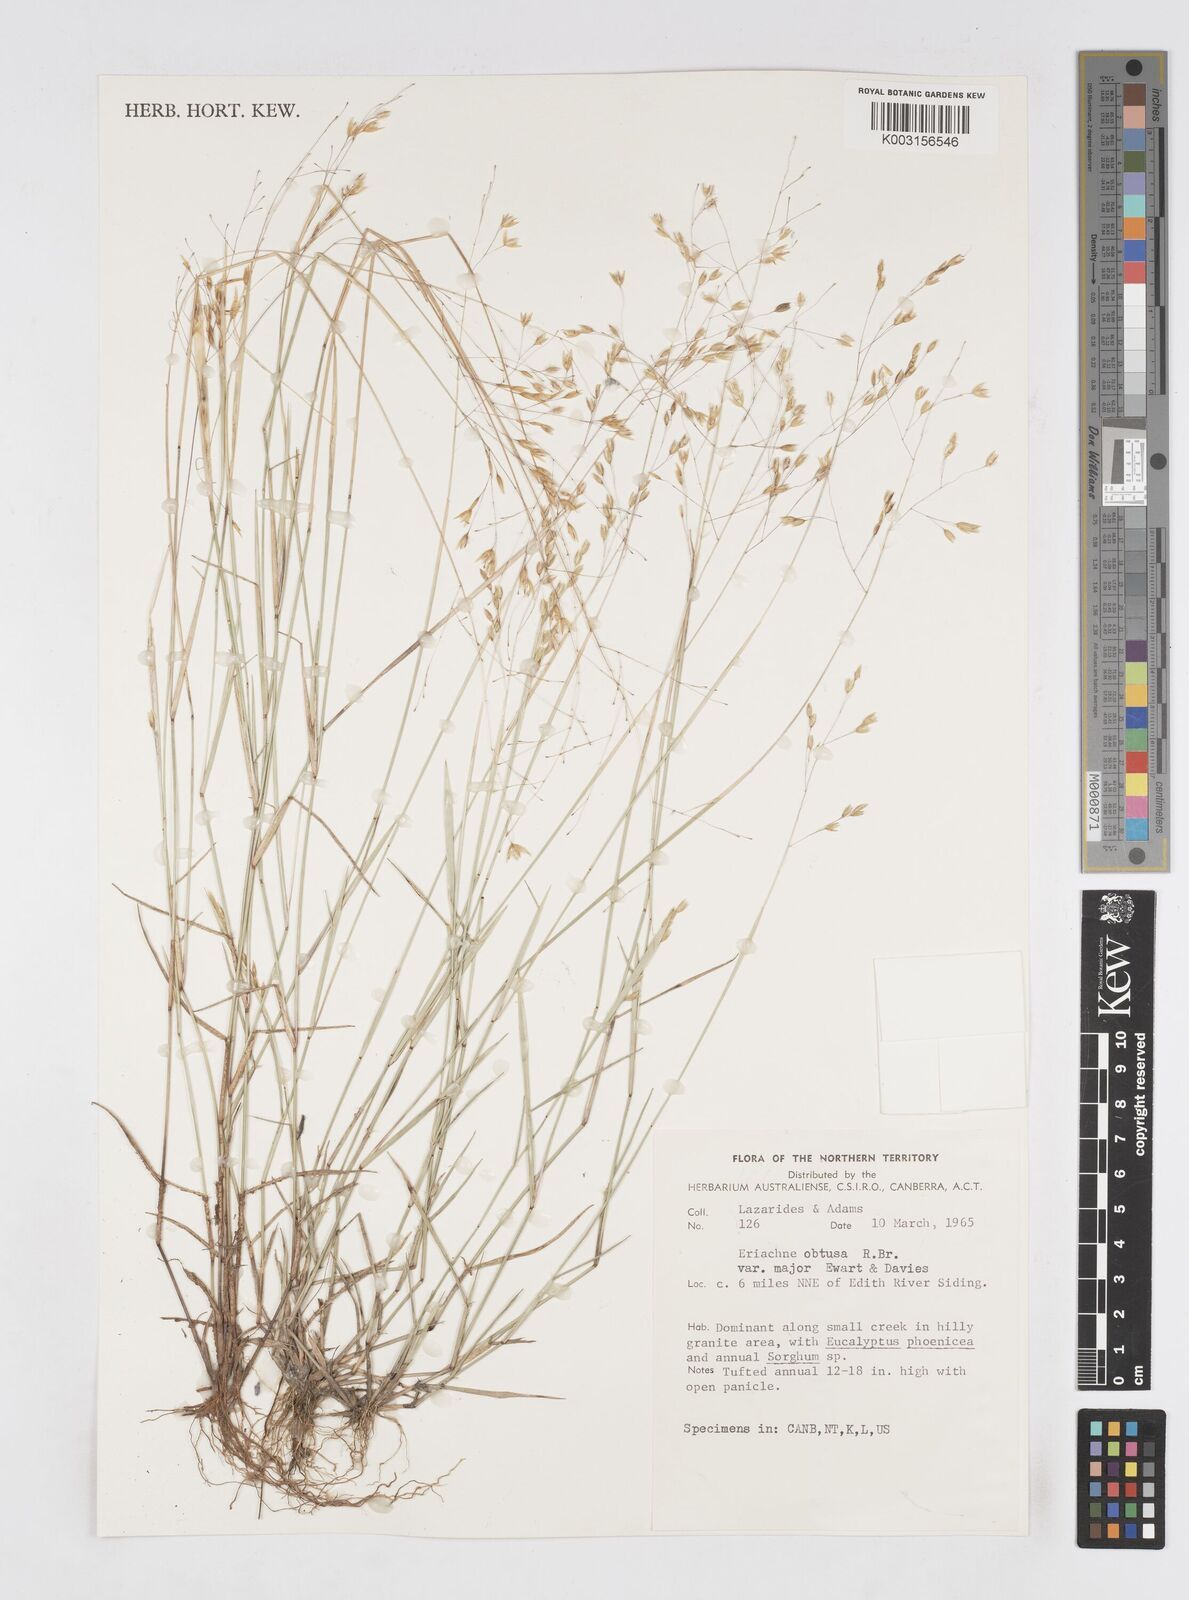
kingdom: Plantae
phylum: Tracheophyta
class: Liliopsida
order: Poales
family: Poaceae
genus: Eriachne
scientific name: Eriachne obtusa
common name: Northern wanderrie grass
